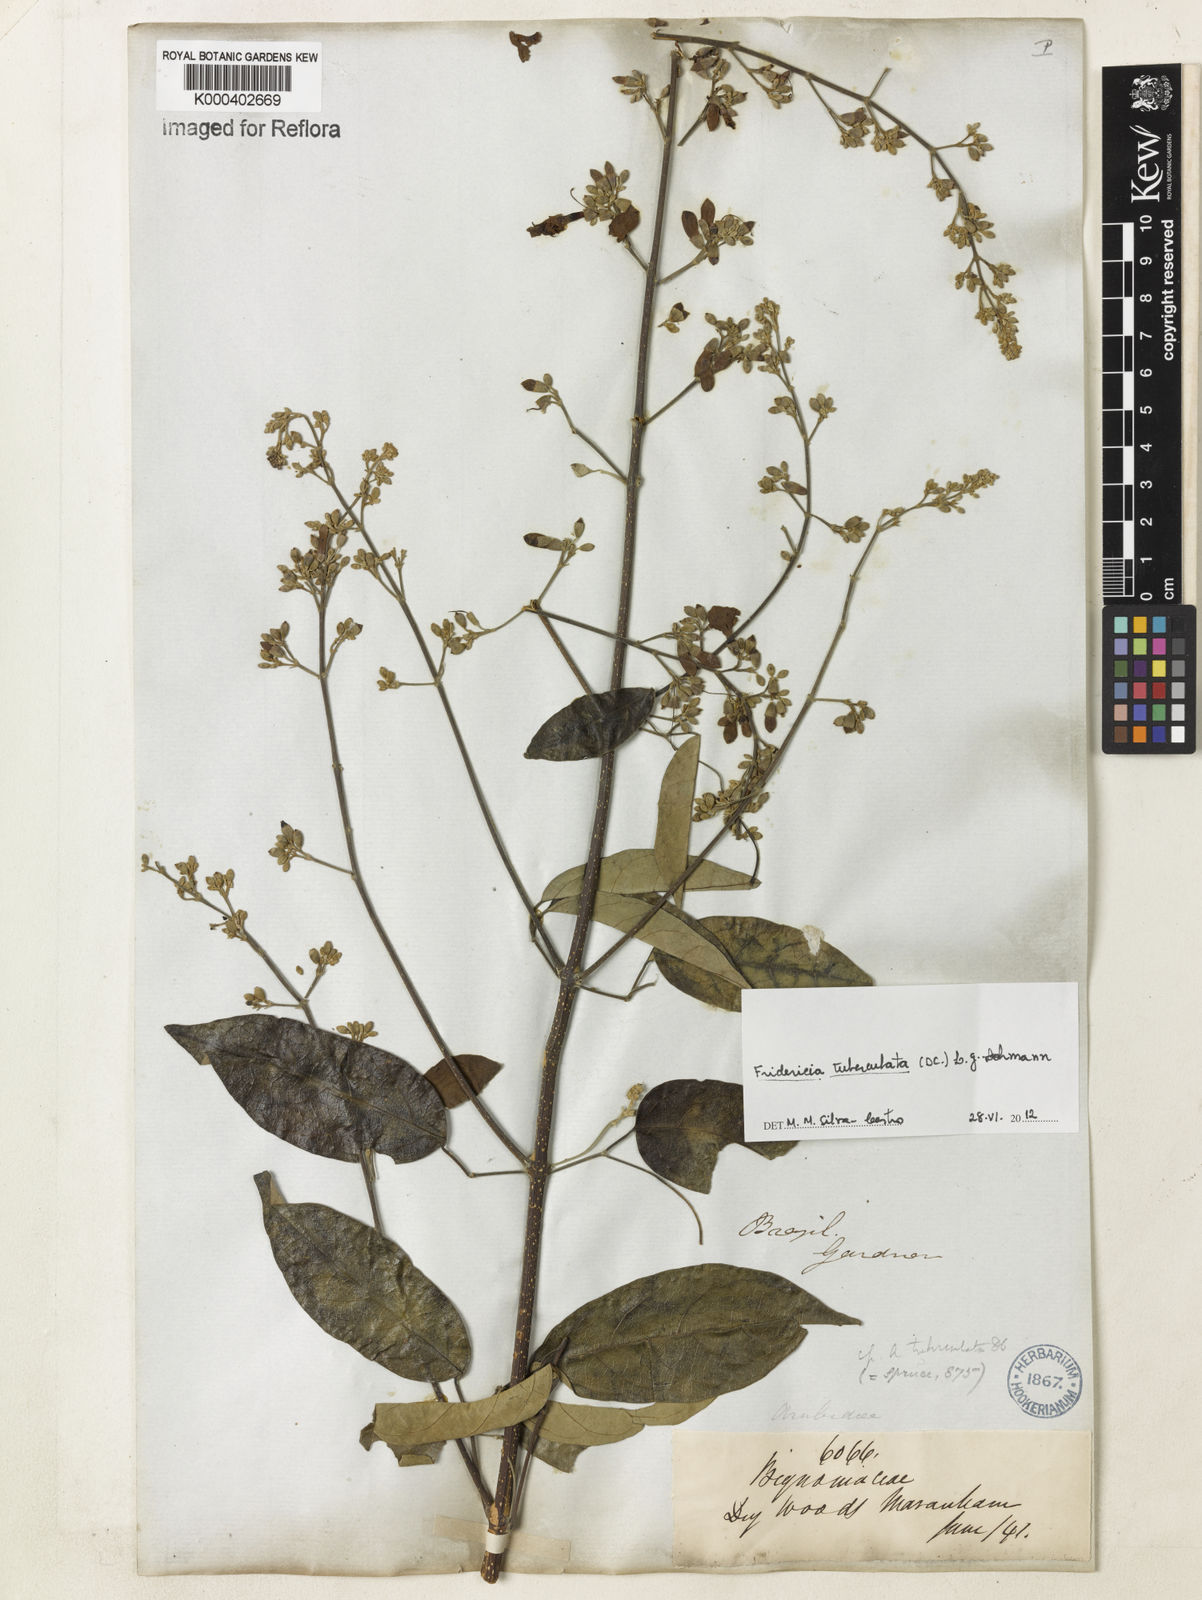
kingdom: Plantae
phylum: Tracheophyta
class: Magnoliopsida
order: Lamiales
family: Bignoniaceae
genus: Fridericia
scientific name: Fridericia tuberculata
